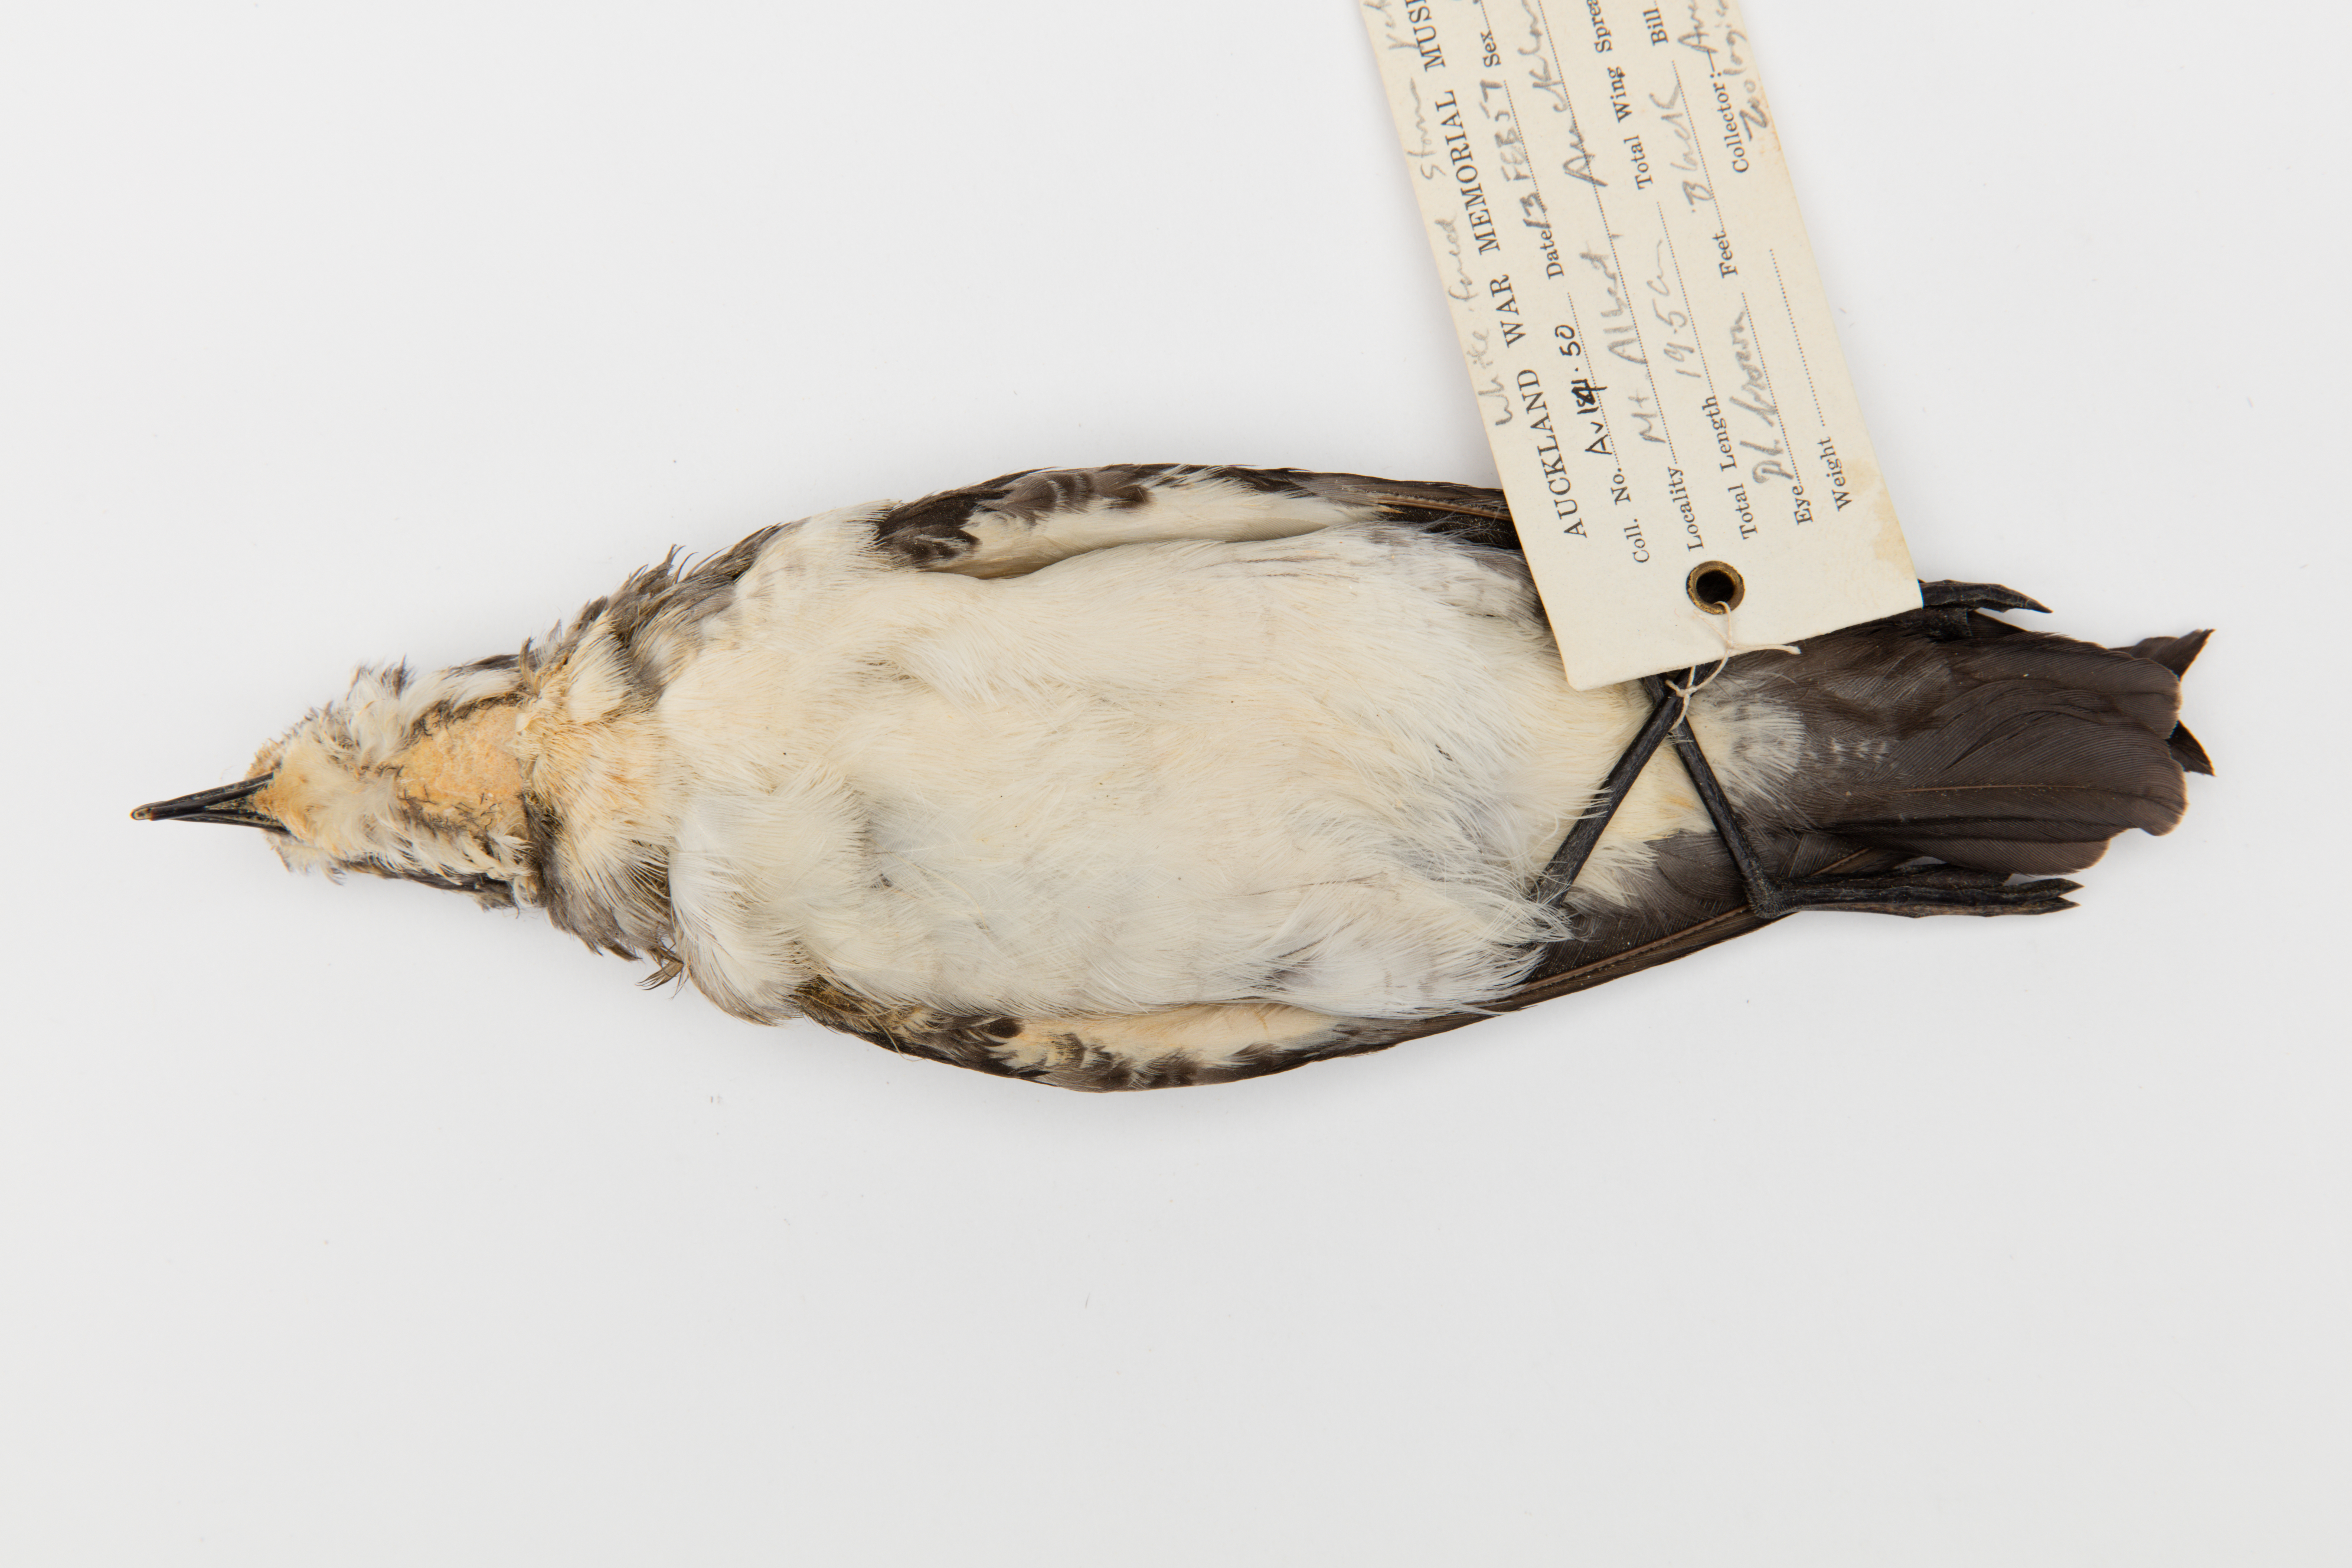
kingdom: Animalia
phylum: Chordata
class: Aves
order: Procellariiformes
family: Hydrobatidae
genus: Pelagodroma
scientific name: Pelagodroma marina
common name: White-faced storm-petrel
